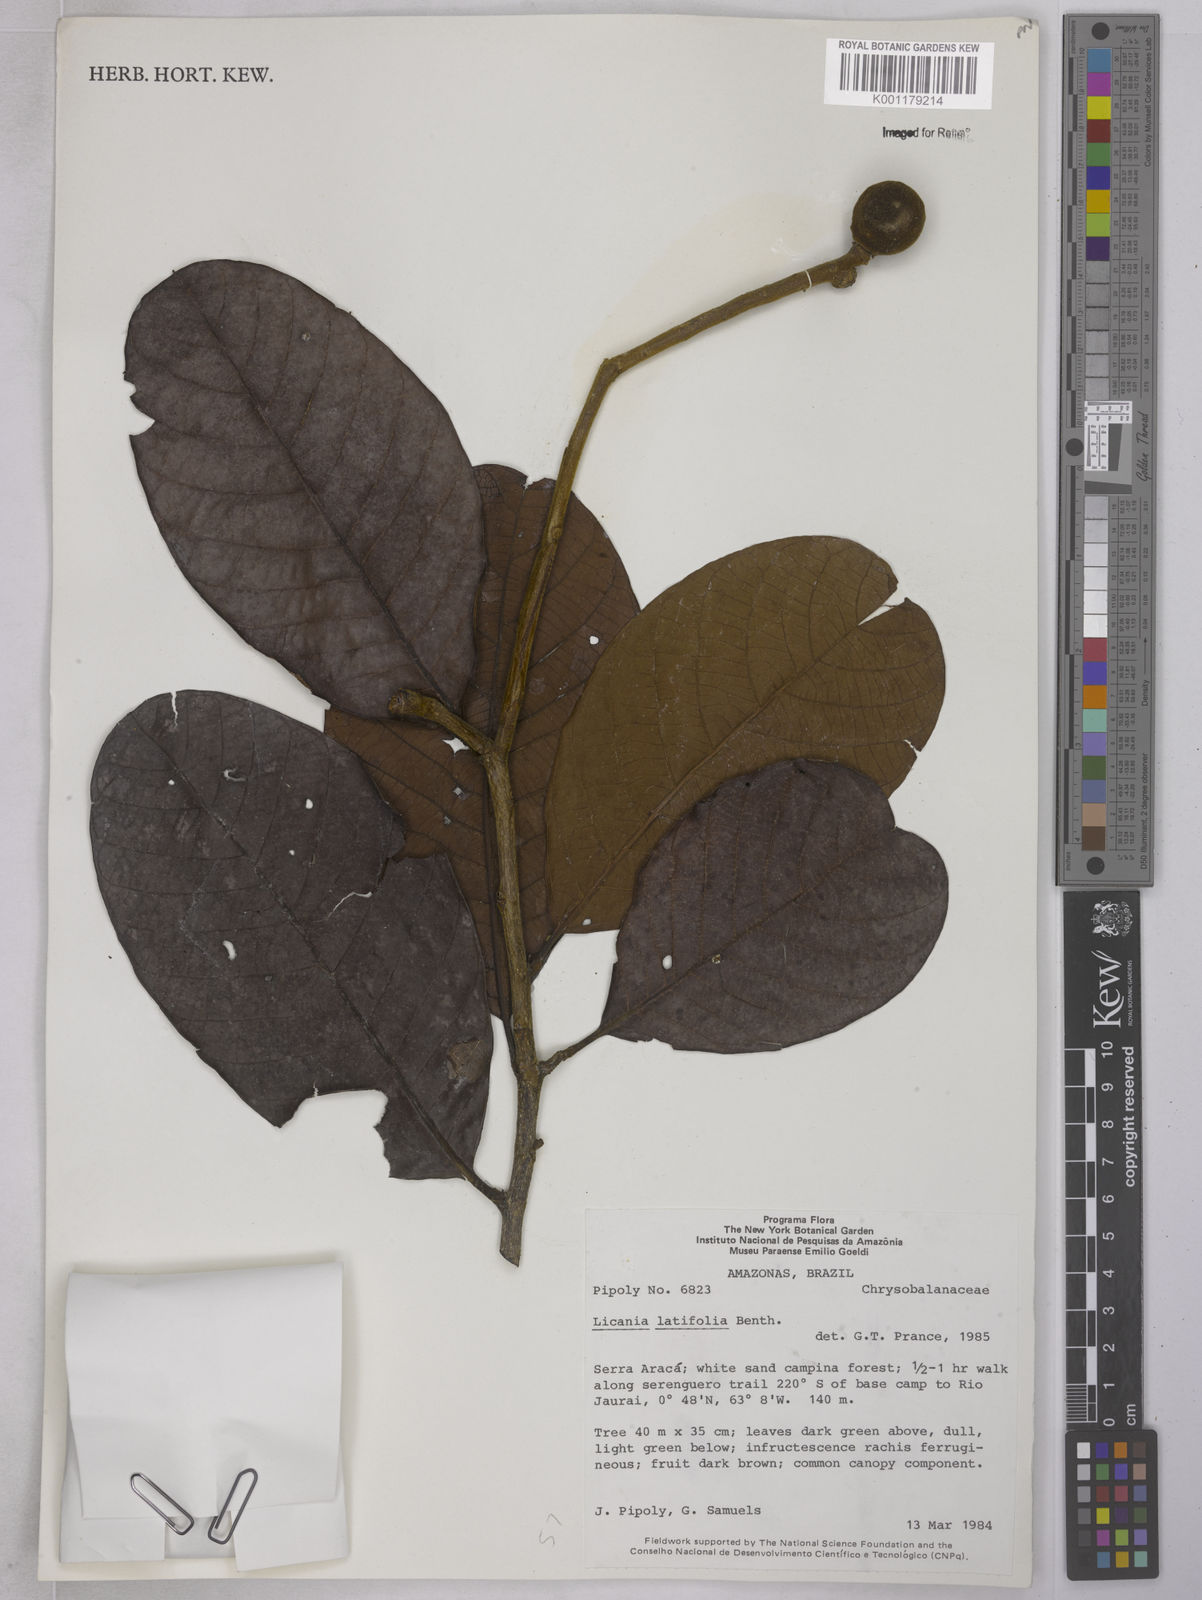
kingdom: Plantae
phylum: Tracheophyta
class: Magnoliopsida
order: Malpighiales
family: Chrysobalanaceae
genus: Hymenopus
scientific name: Hymenopus latifolius
